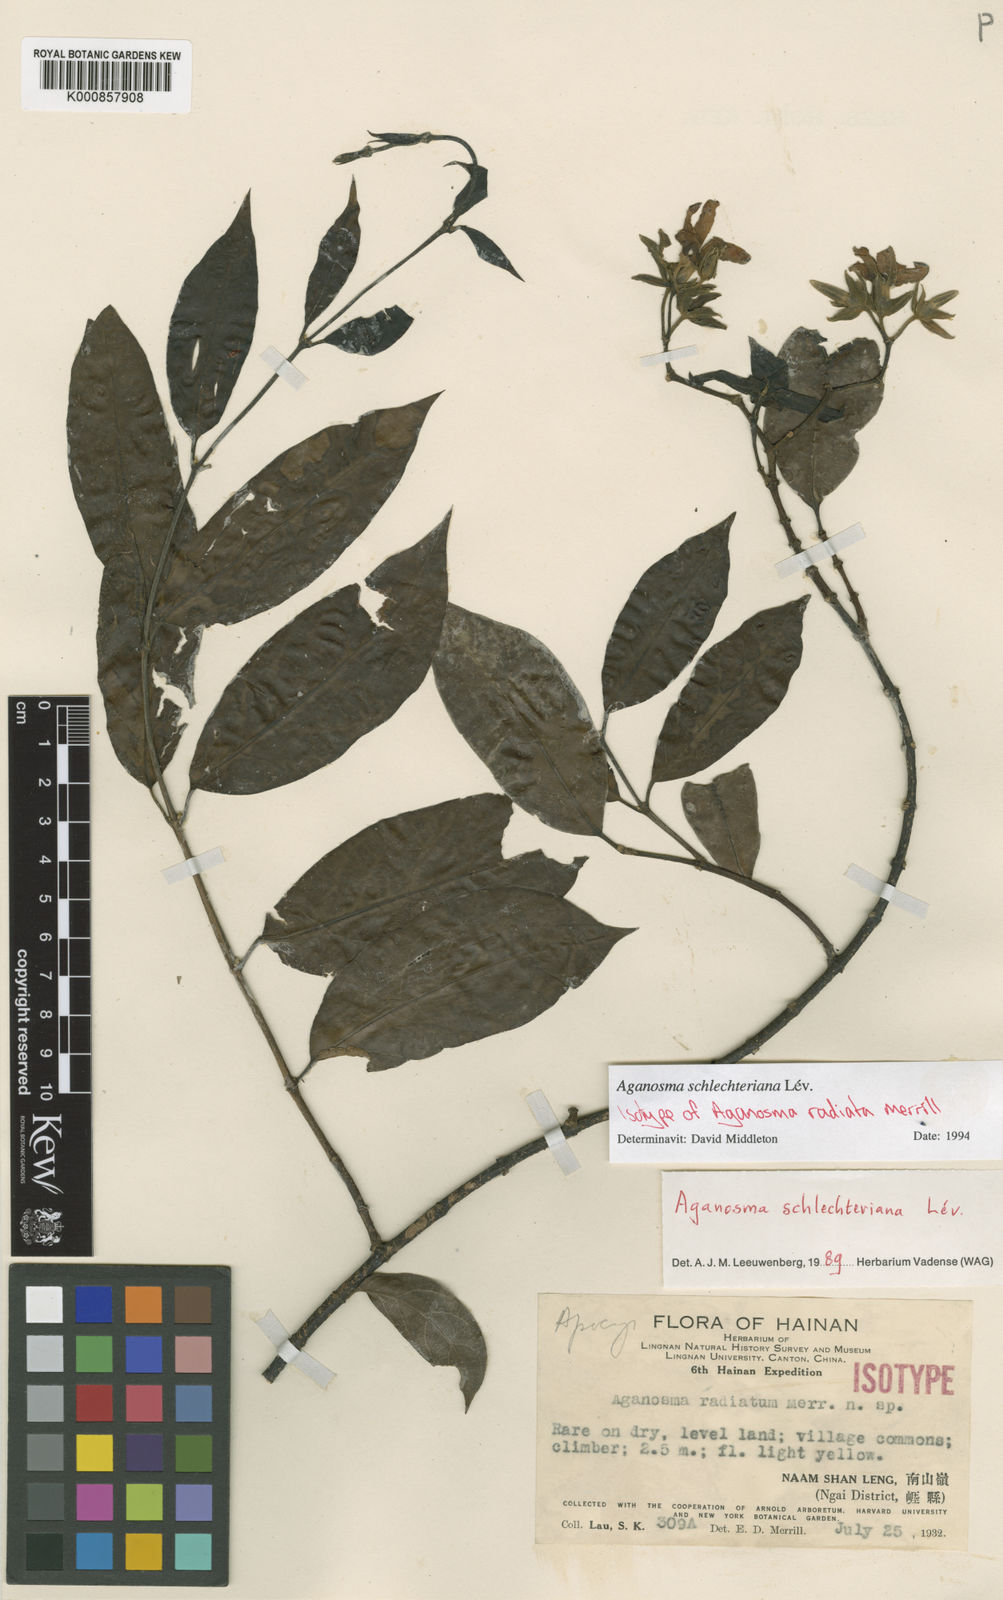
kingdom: Plantae
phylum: Tracheophyta
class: Magnoliopsida
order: Gentianales
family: Apocynaceae
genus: Aganosma
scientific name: Aganosma
